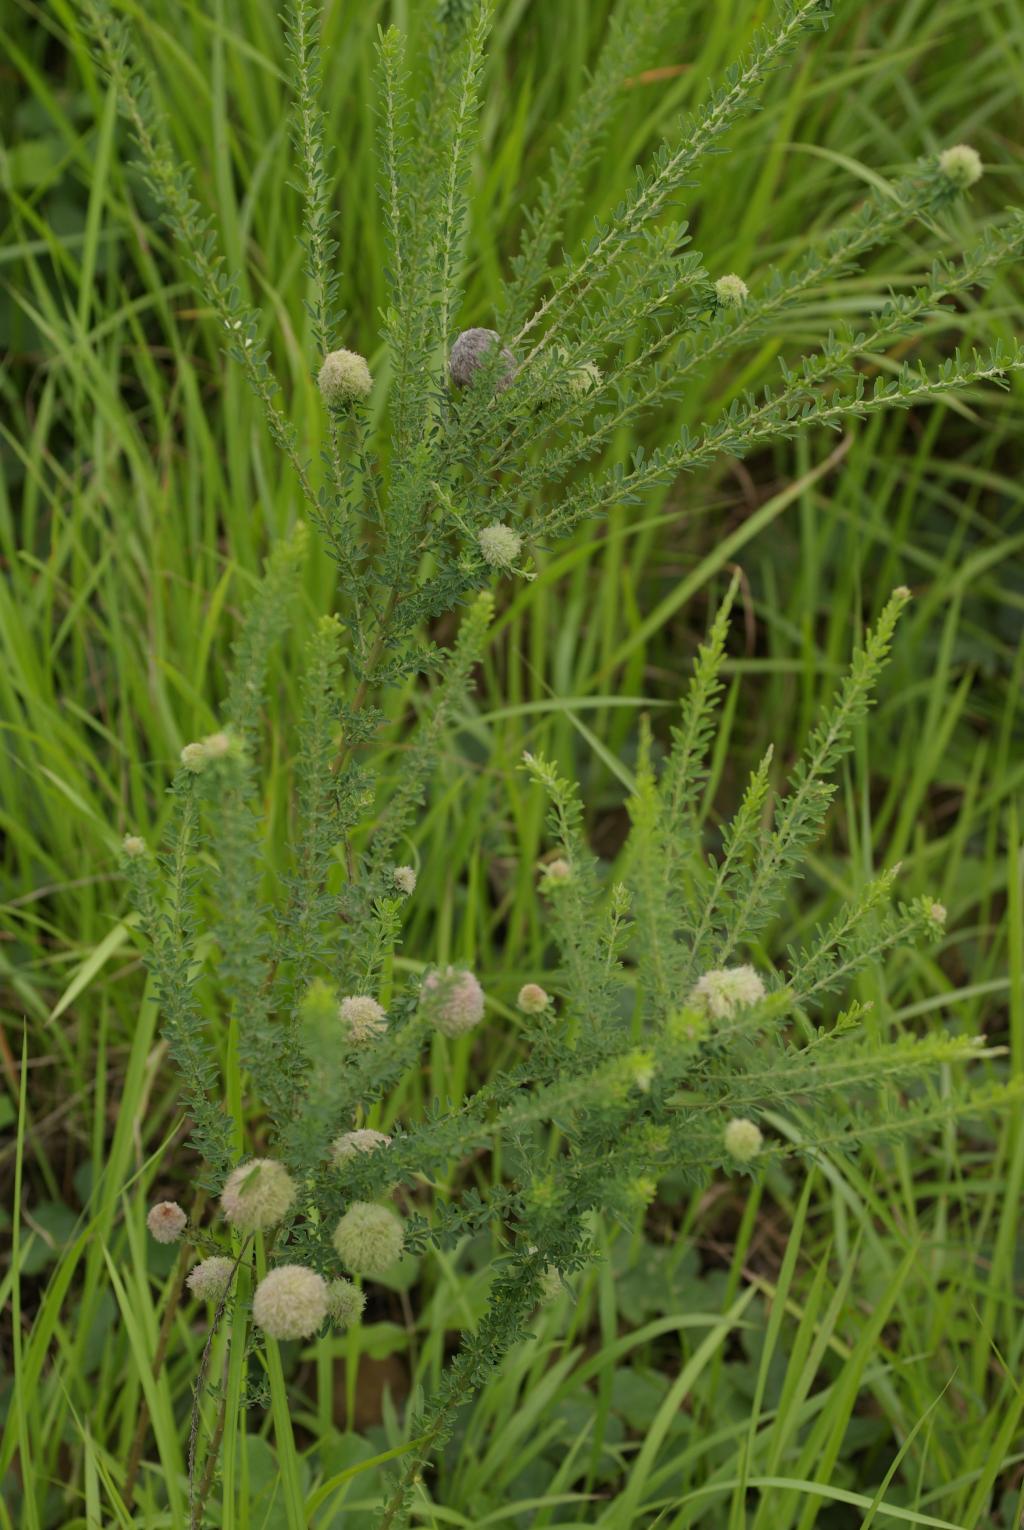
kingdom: Plantae
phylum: Tracheophyta
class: Magnoliopsida
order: Fabales
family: Fabaceae
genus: Lespedeza
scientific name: Lespedeza cuneata
